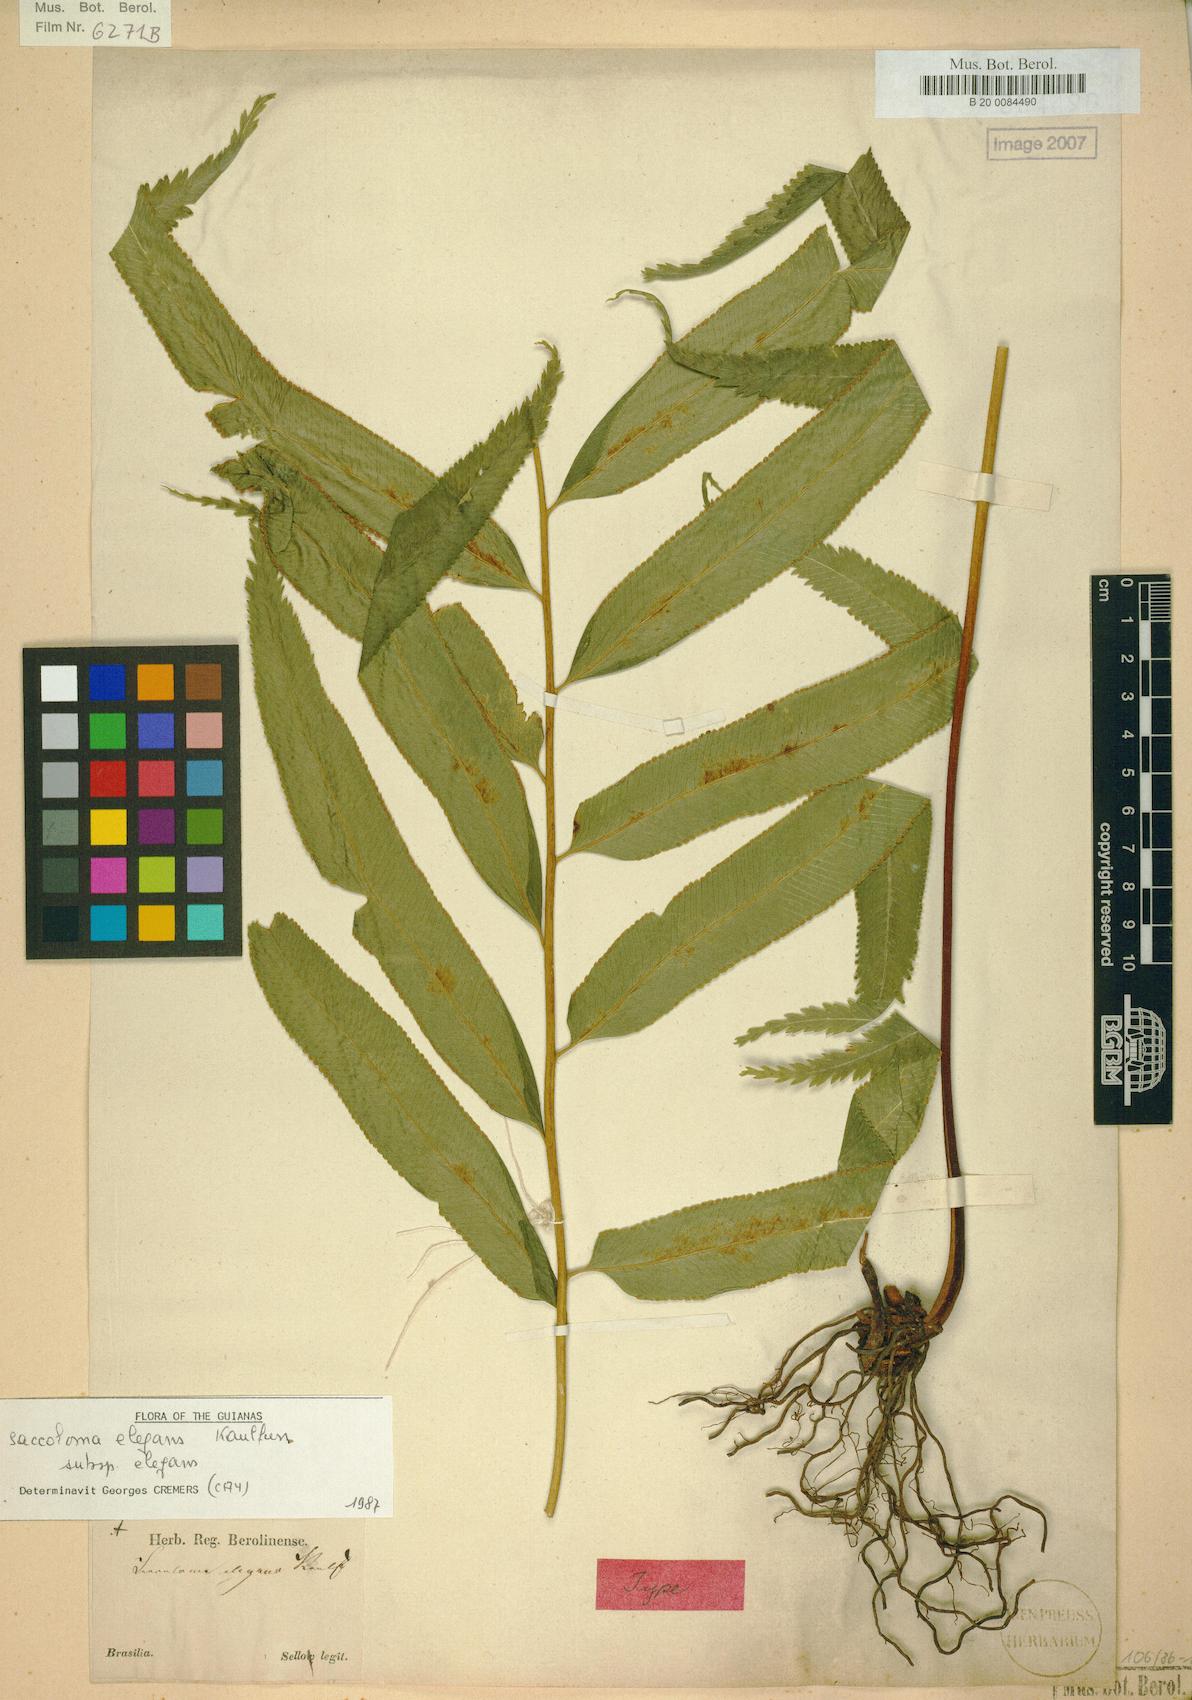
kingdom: Plantae
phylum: Tracheophyta
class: Polypodiopsida
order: Polypodiales
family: Saccolomataceae
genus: Saccoloma
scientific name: Saccoloma elegans
